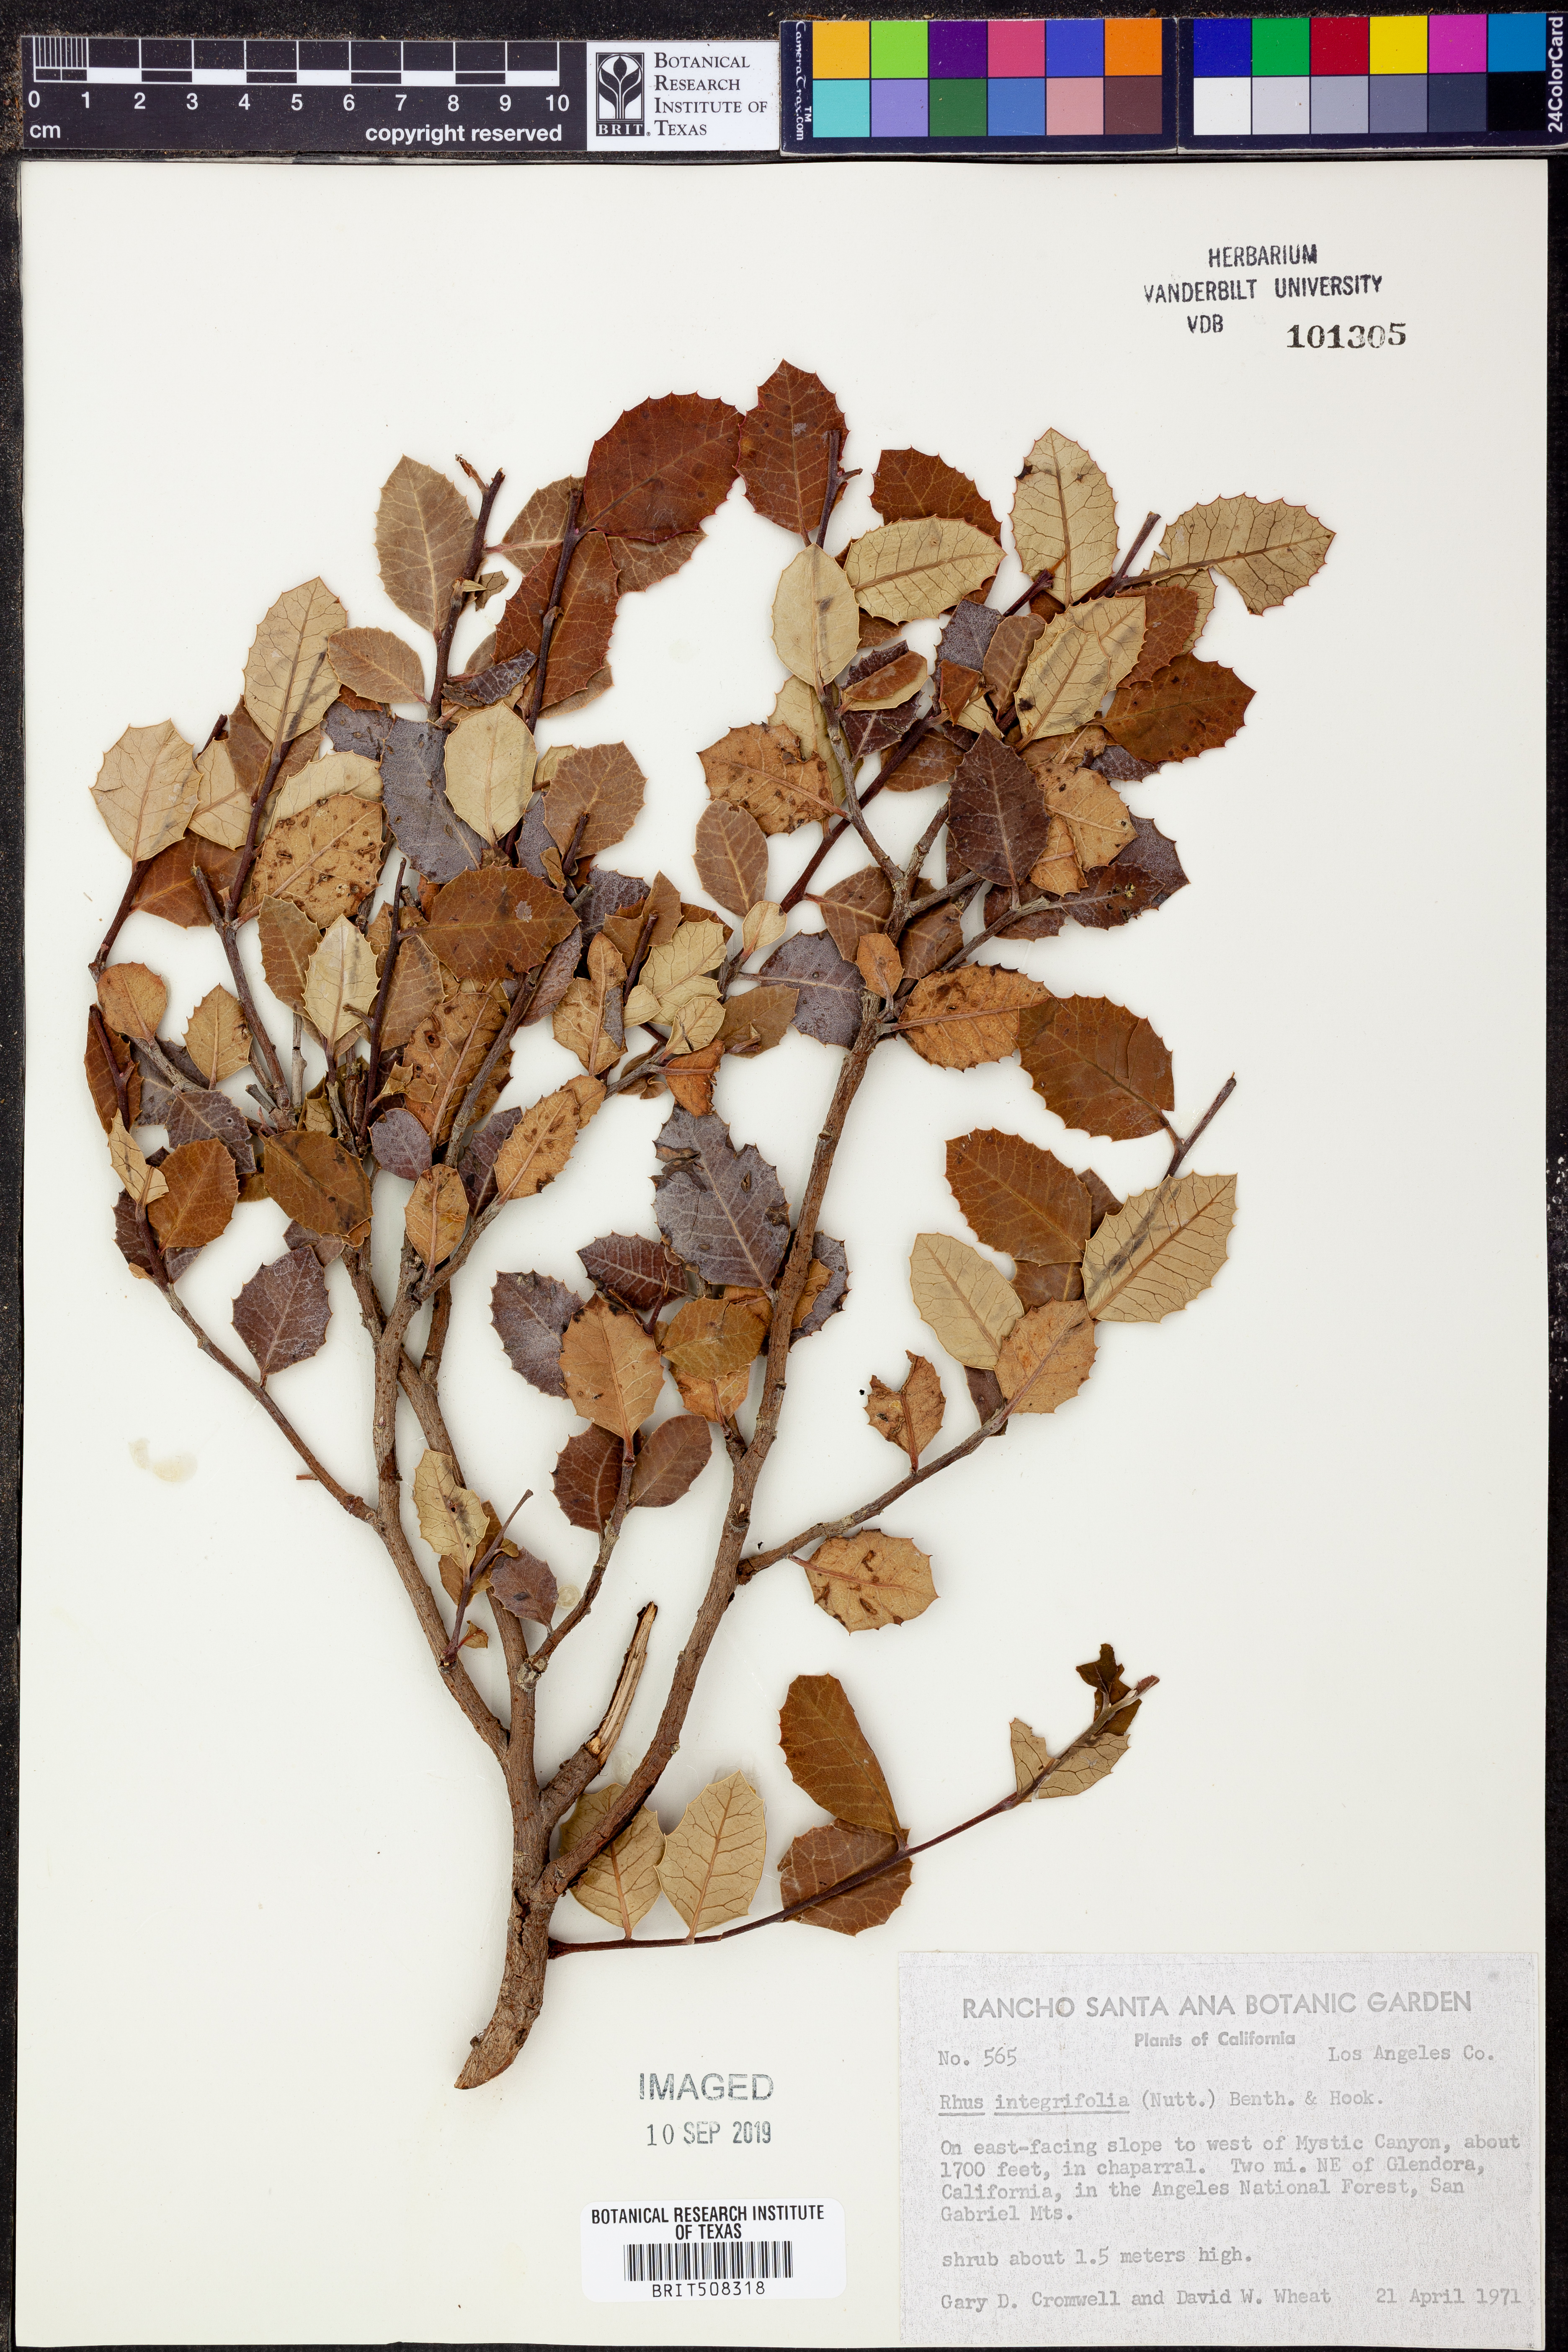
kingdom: Plantae
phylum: Tracheophyta
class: Magnoliopsida
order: Sapindales
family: Anacardiaceae
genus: Rhus
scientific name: Rhus integrifolia
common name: Lemonade sumac
